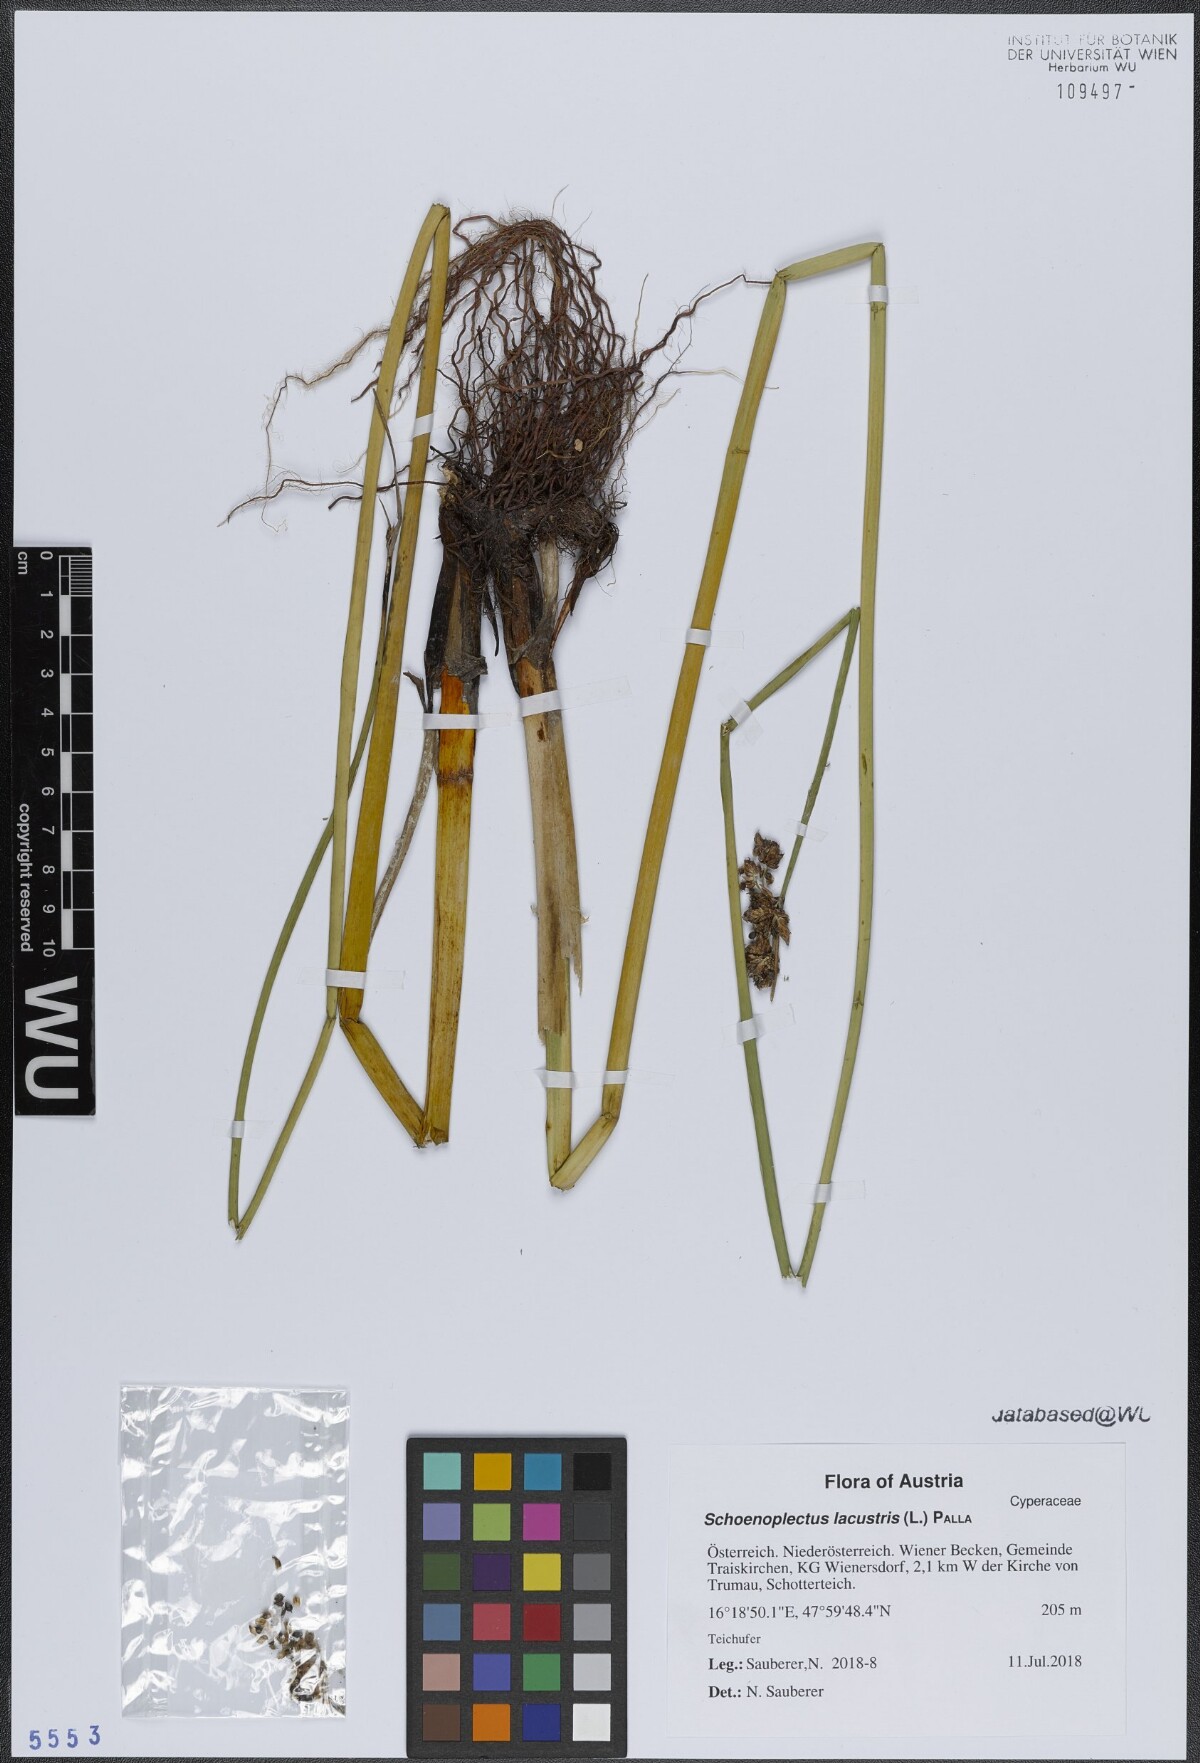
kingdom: Plantae
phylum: Tracheophyta
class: Liliopsida
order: Poales
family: Cyperaceae
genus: Schoenoplectus
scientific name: Schoenoplectus lacustris
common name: Common club-rush
